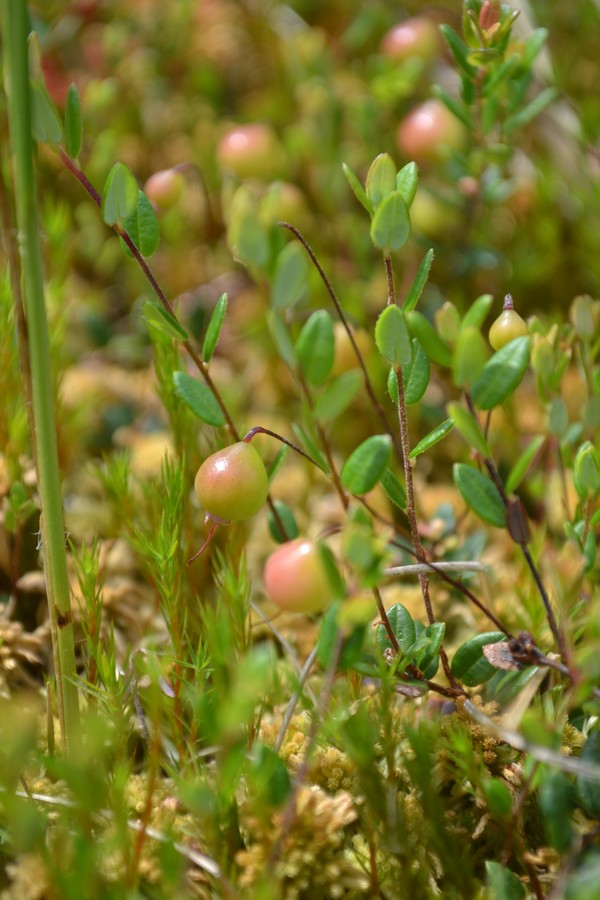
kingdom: Plantae
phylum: Tracheophyta
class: Magnoliopsida
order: Ericales
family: Ericaceae
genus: Vaccinium
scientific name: Vaccinium oxycoccos
